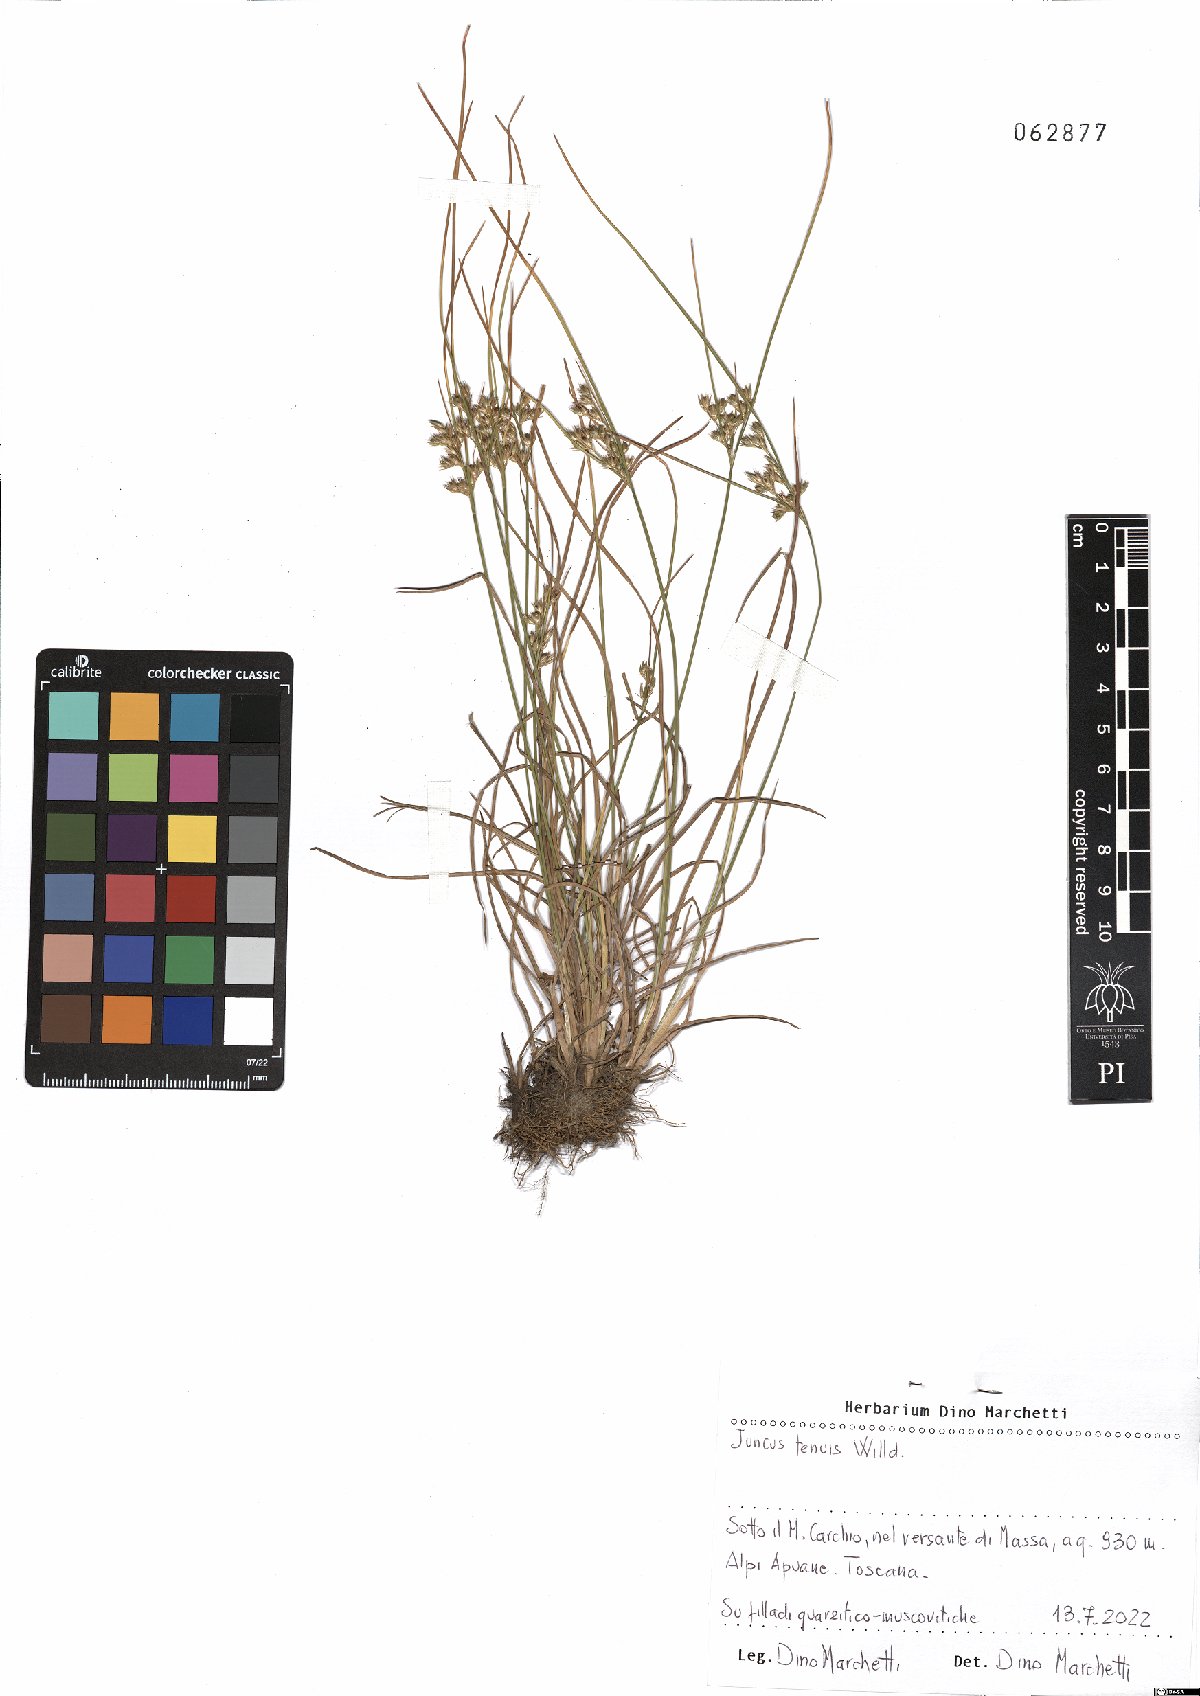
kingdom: Plantae
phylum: Tracheophyta
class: Liliopsida
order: Poales
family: Juncaceae
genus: Juncus
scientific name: Juncus tenuis
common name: Slender rush
